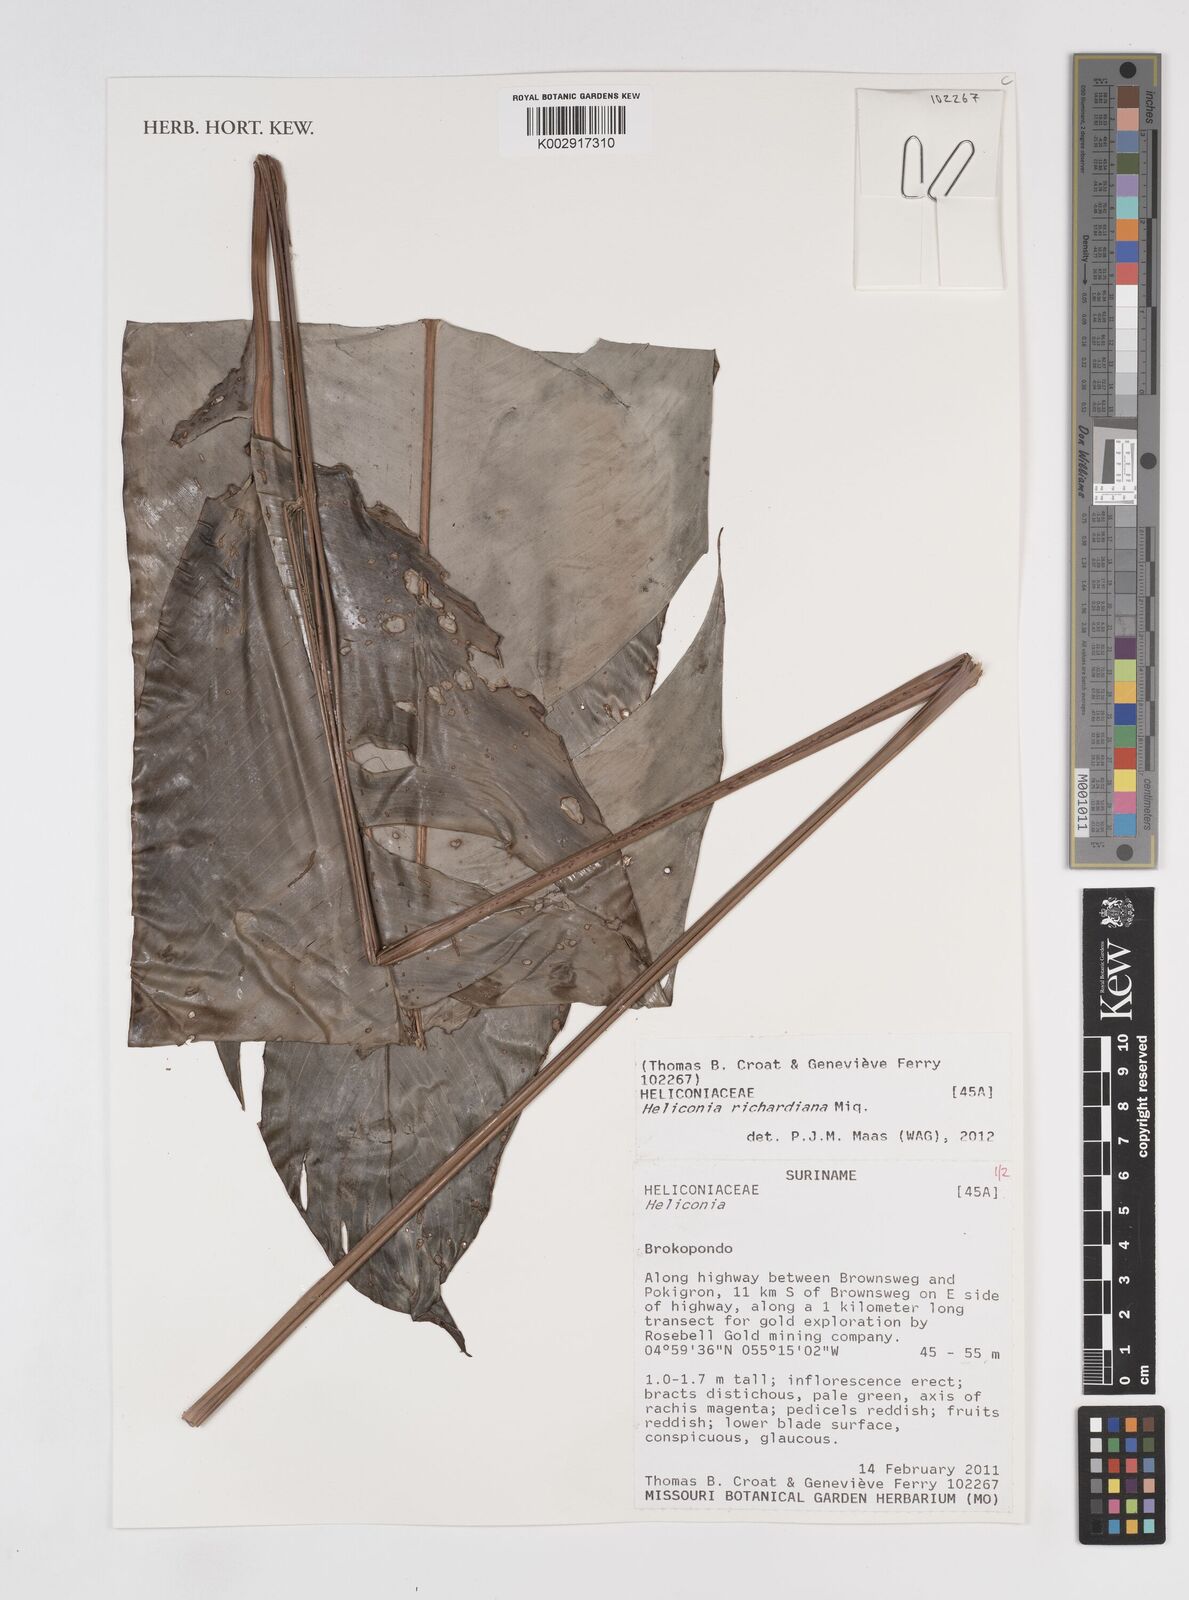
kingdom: Plantae
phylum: Tracheophyta
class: Liliopsida
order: Zingiberales
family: Heliconiaceae
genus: Heliconia
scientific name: Heliconia richardiana
